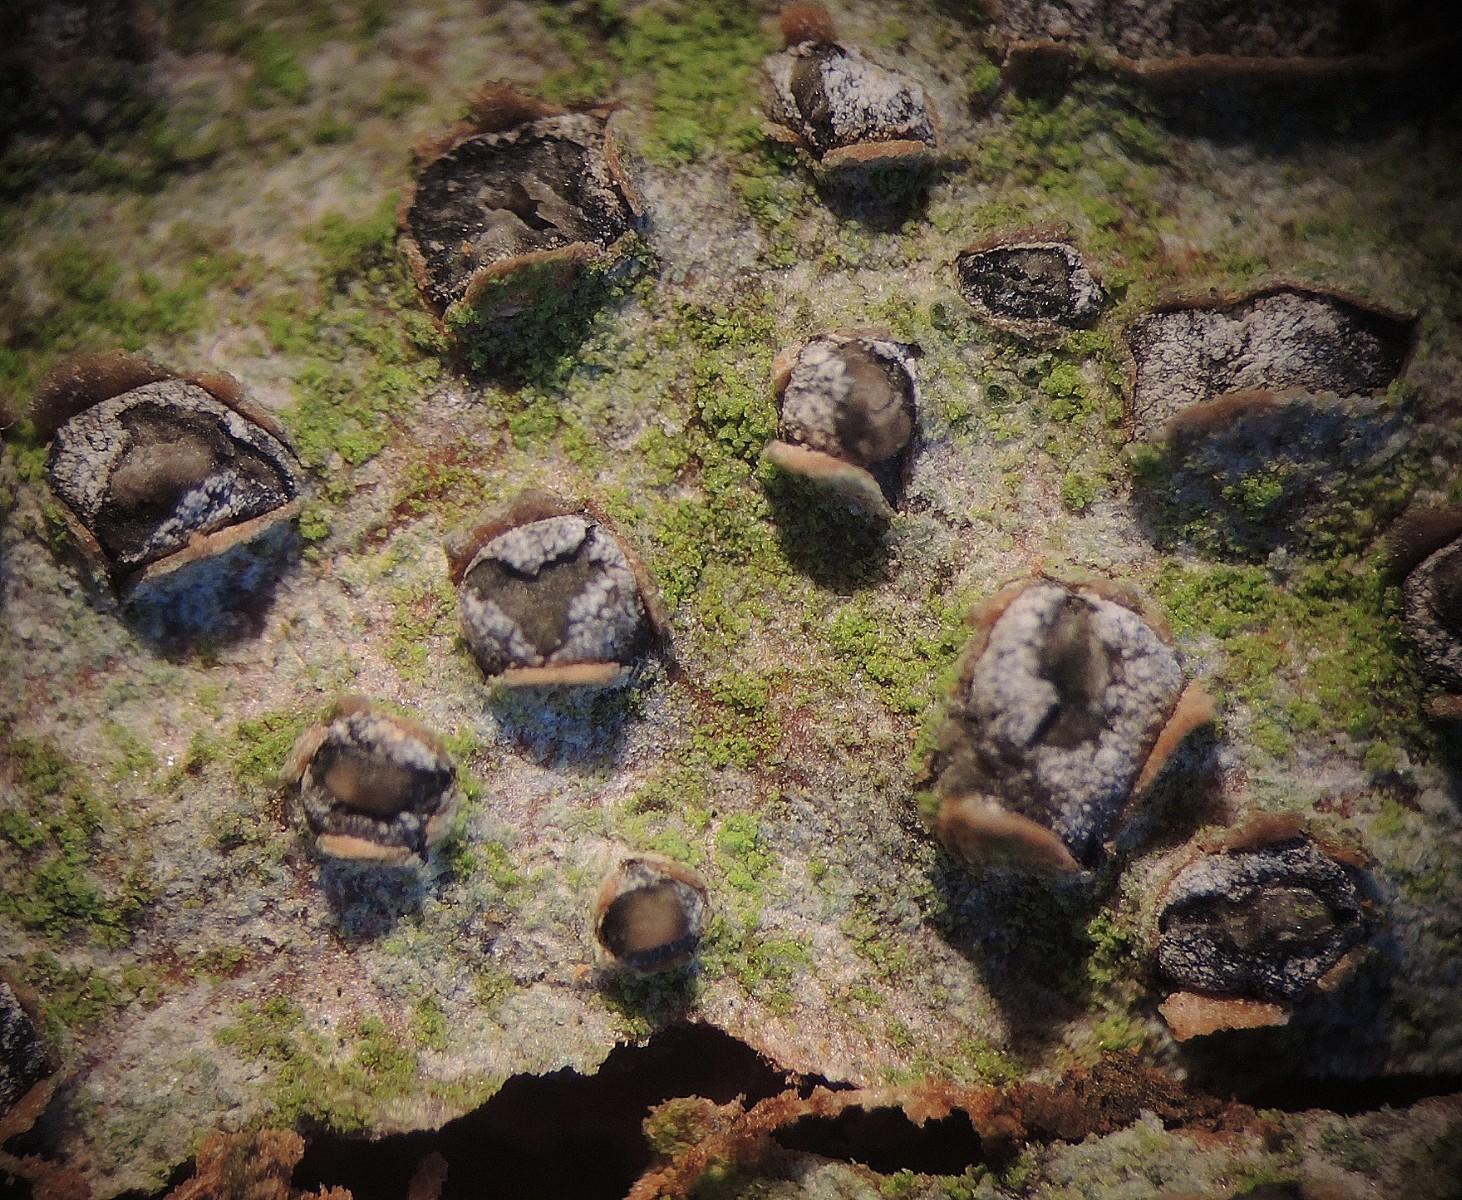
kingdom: Fungi
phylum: Ascomycota
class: Leotiomycetes
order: Rhytismatales
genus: Laquearia
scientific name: Laquearia
